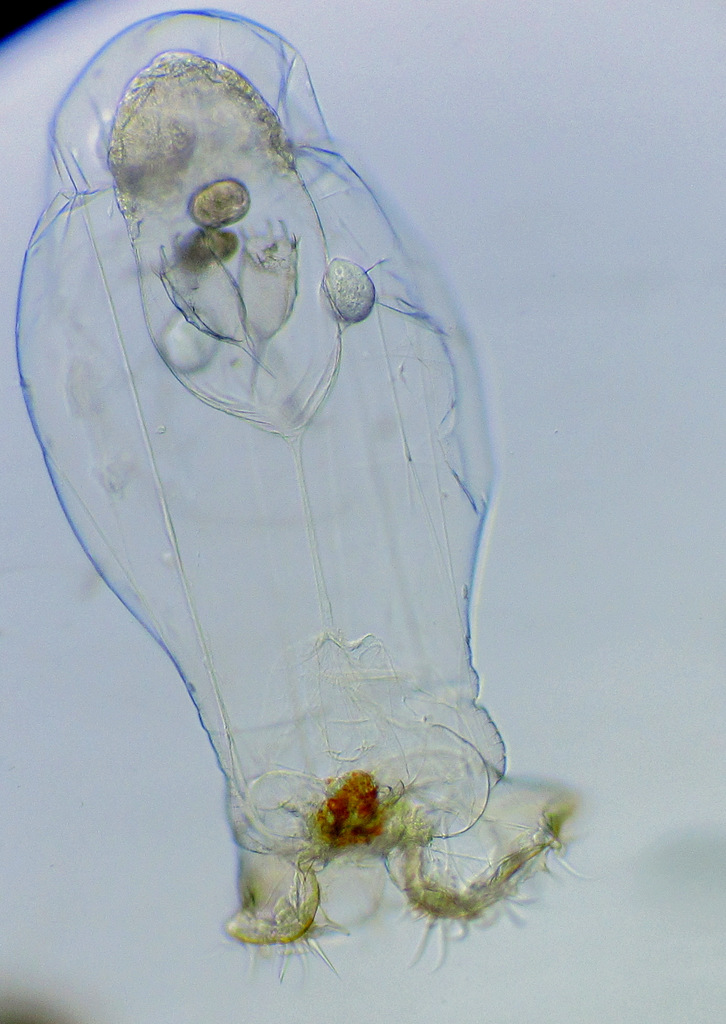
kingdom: Animalia
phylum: Rotifera
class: Eurotatoria
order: Ploima
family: Asplanchnidae
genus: Asplanchna
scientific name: Asplanchna priodonta
